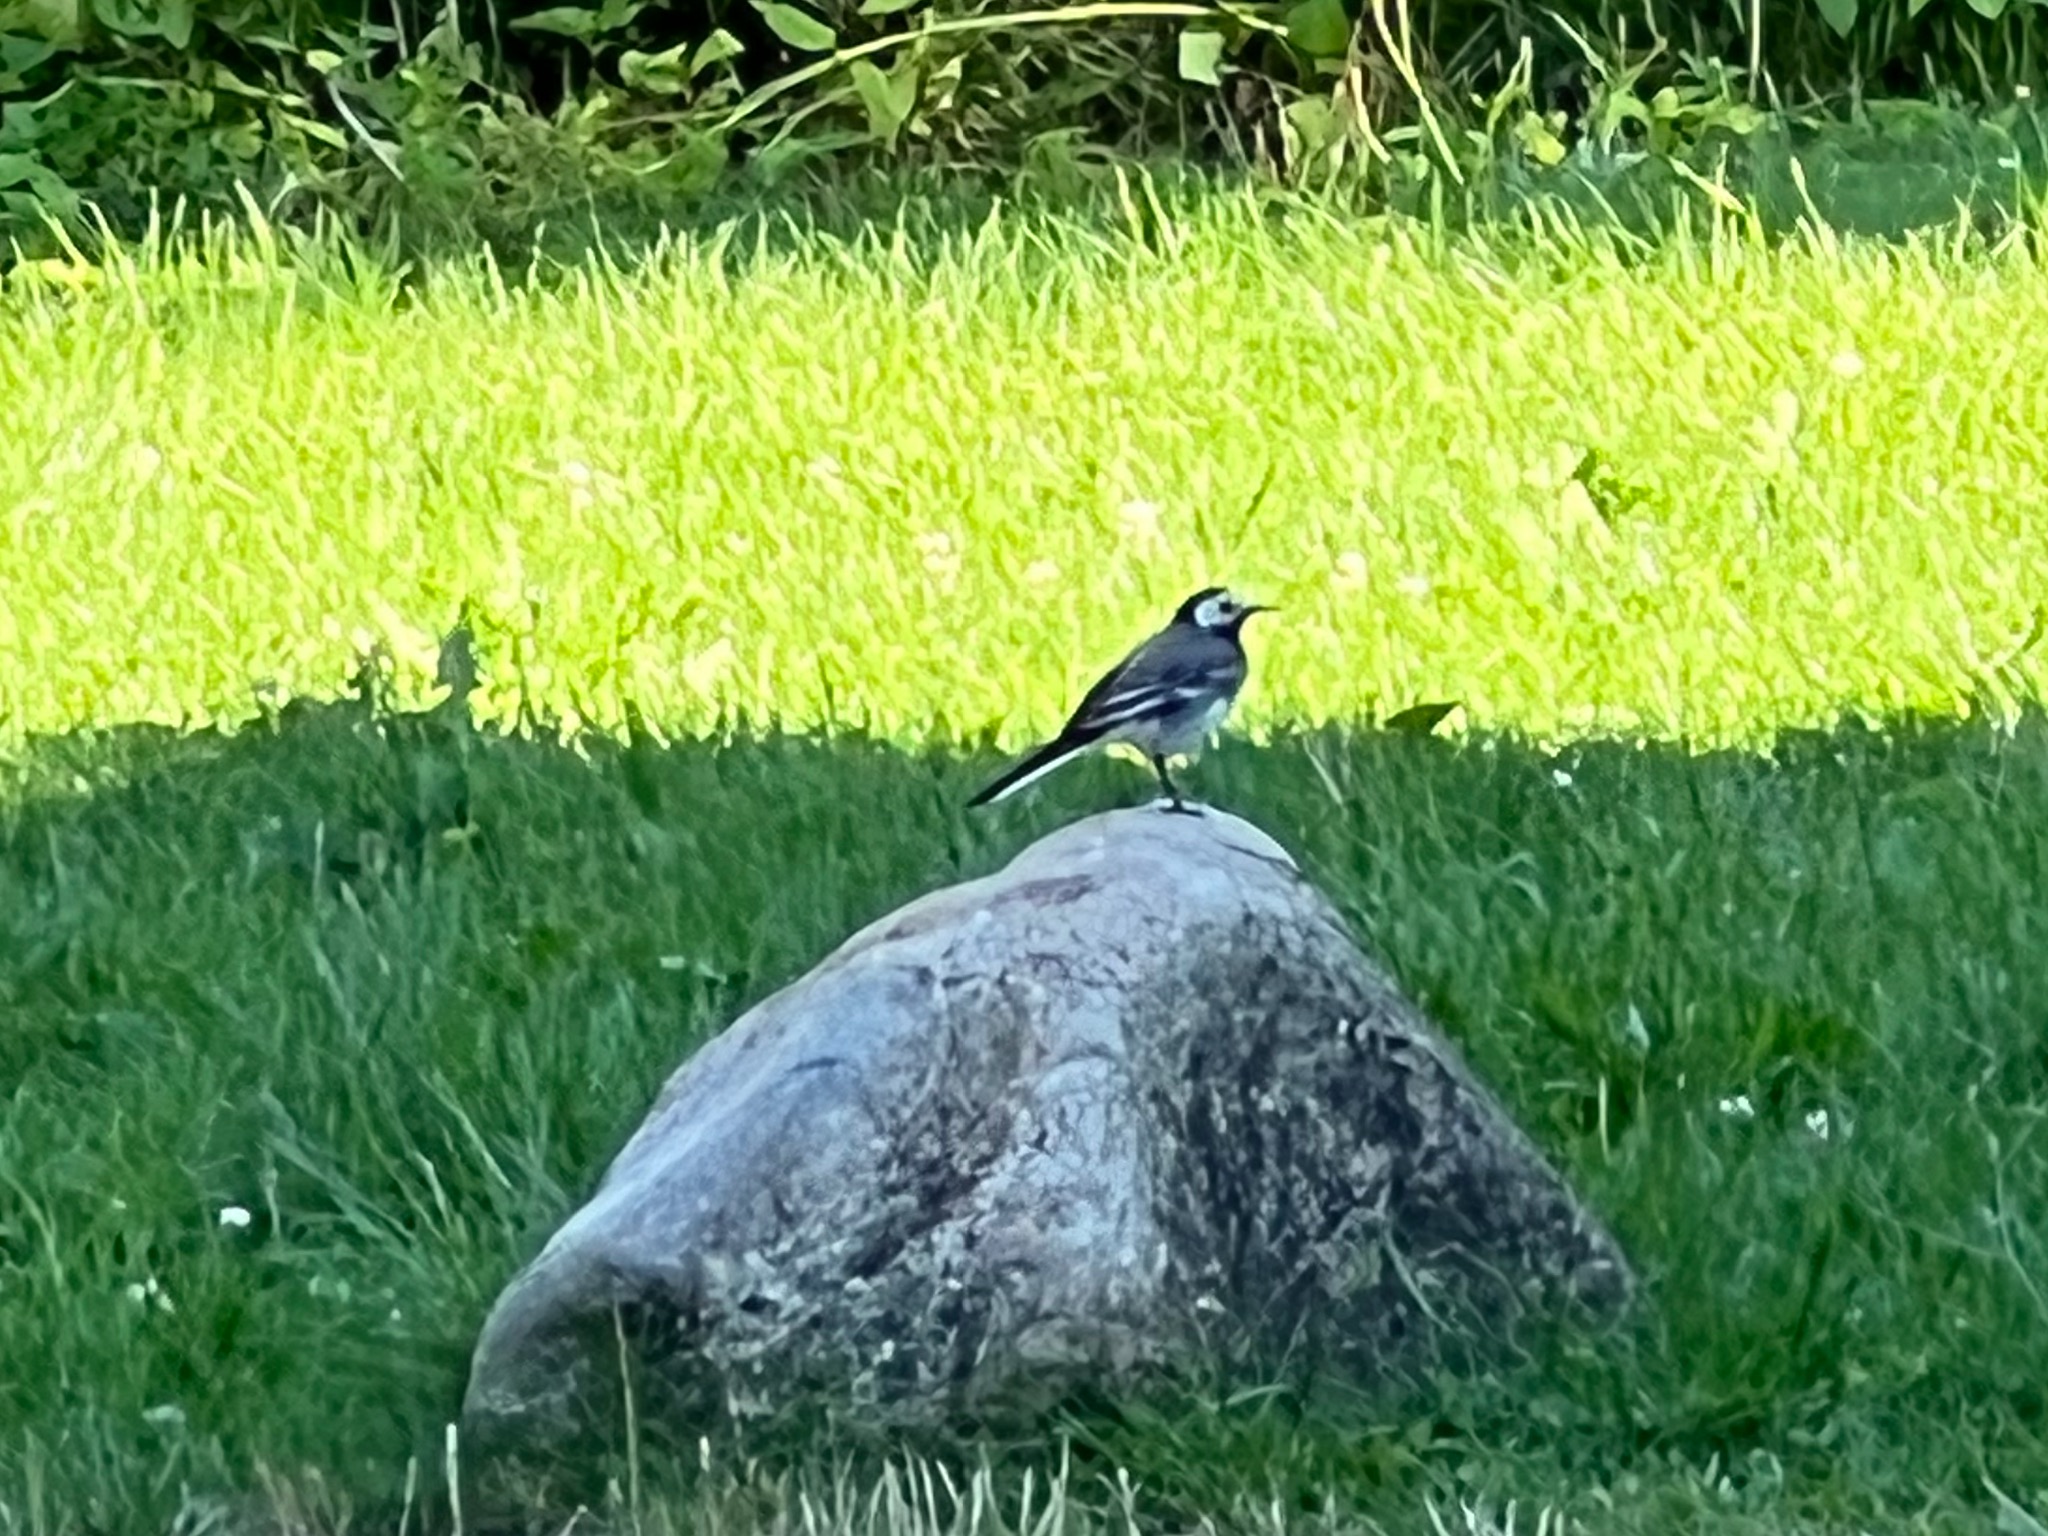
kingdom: Animalia
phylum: Chordata
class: Aves
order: Passeriformes
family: Motacillidae
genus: Motacilla
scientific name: Motacilla alba
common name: Hvid vipstjert
